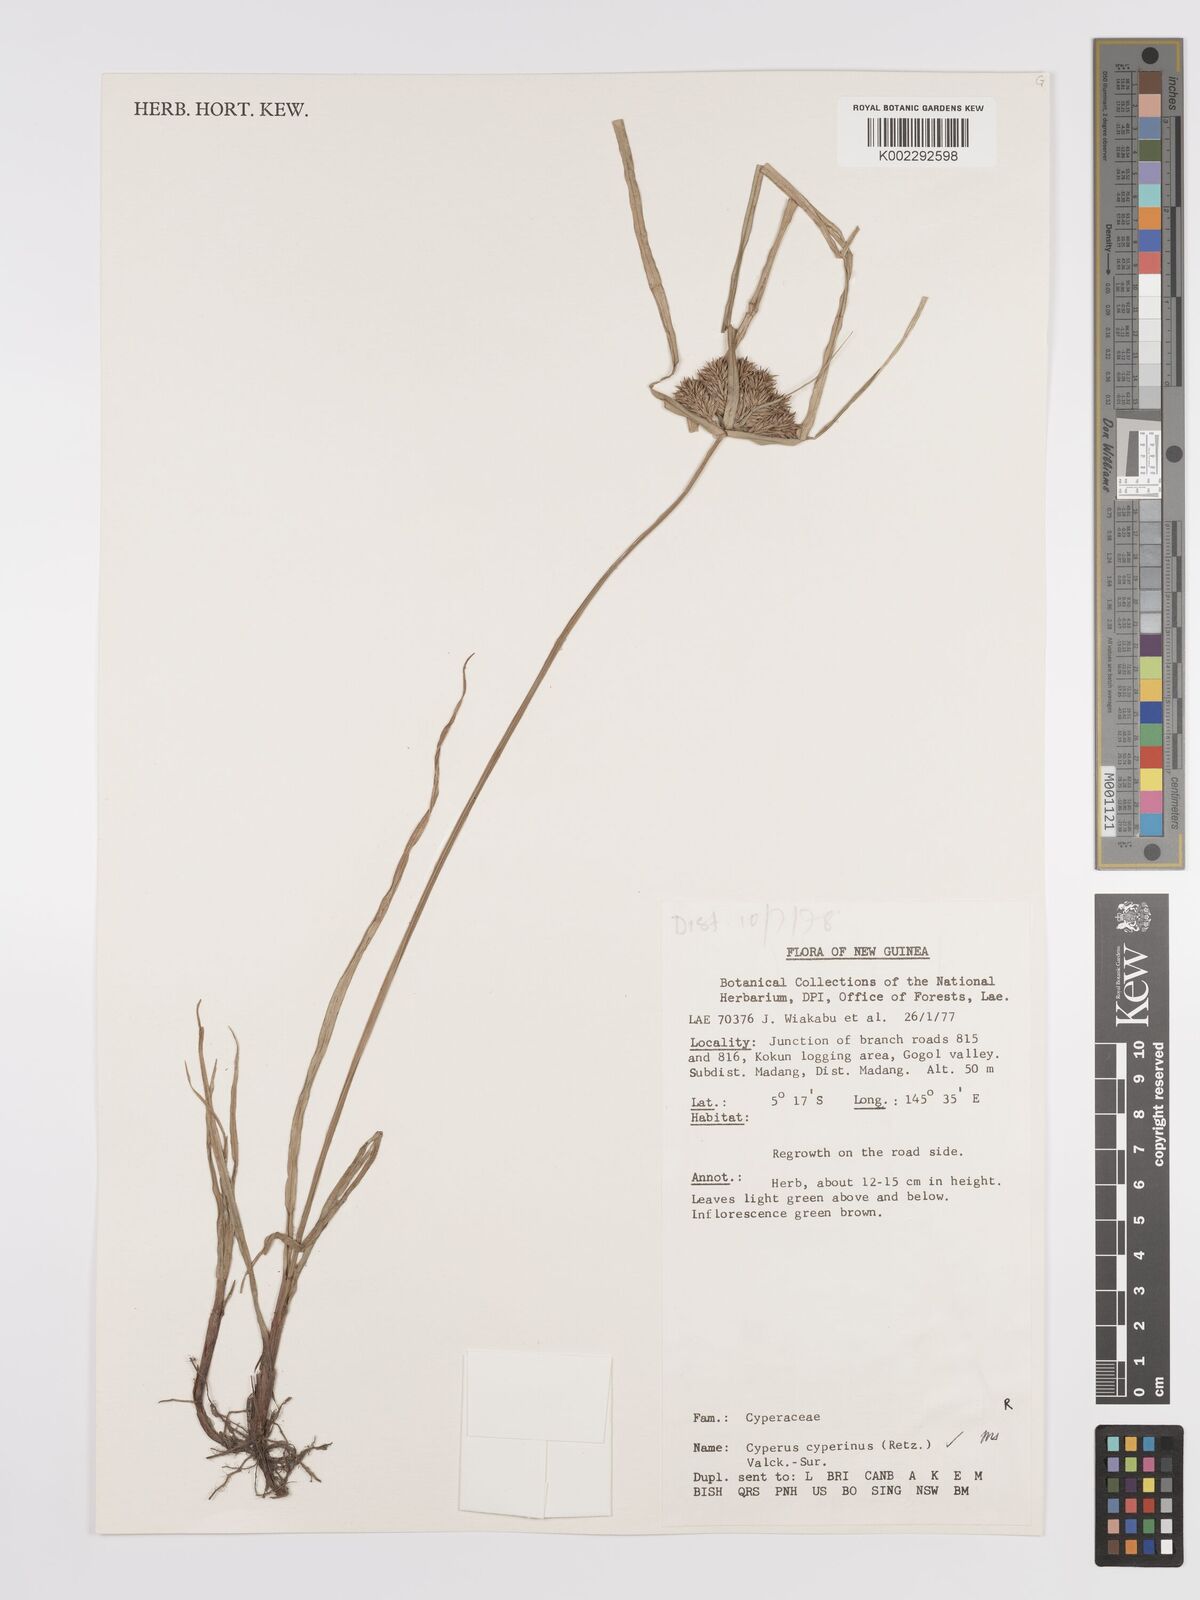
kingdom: Plantae
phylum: Tracheophyta
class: Liliopsida
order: Poales
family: Cyperaceae
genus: Cyperus
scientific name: Cyperus cyperinus
